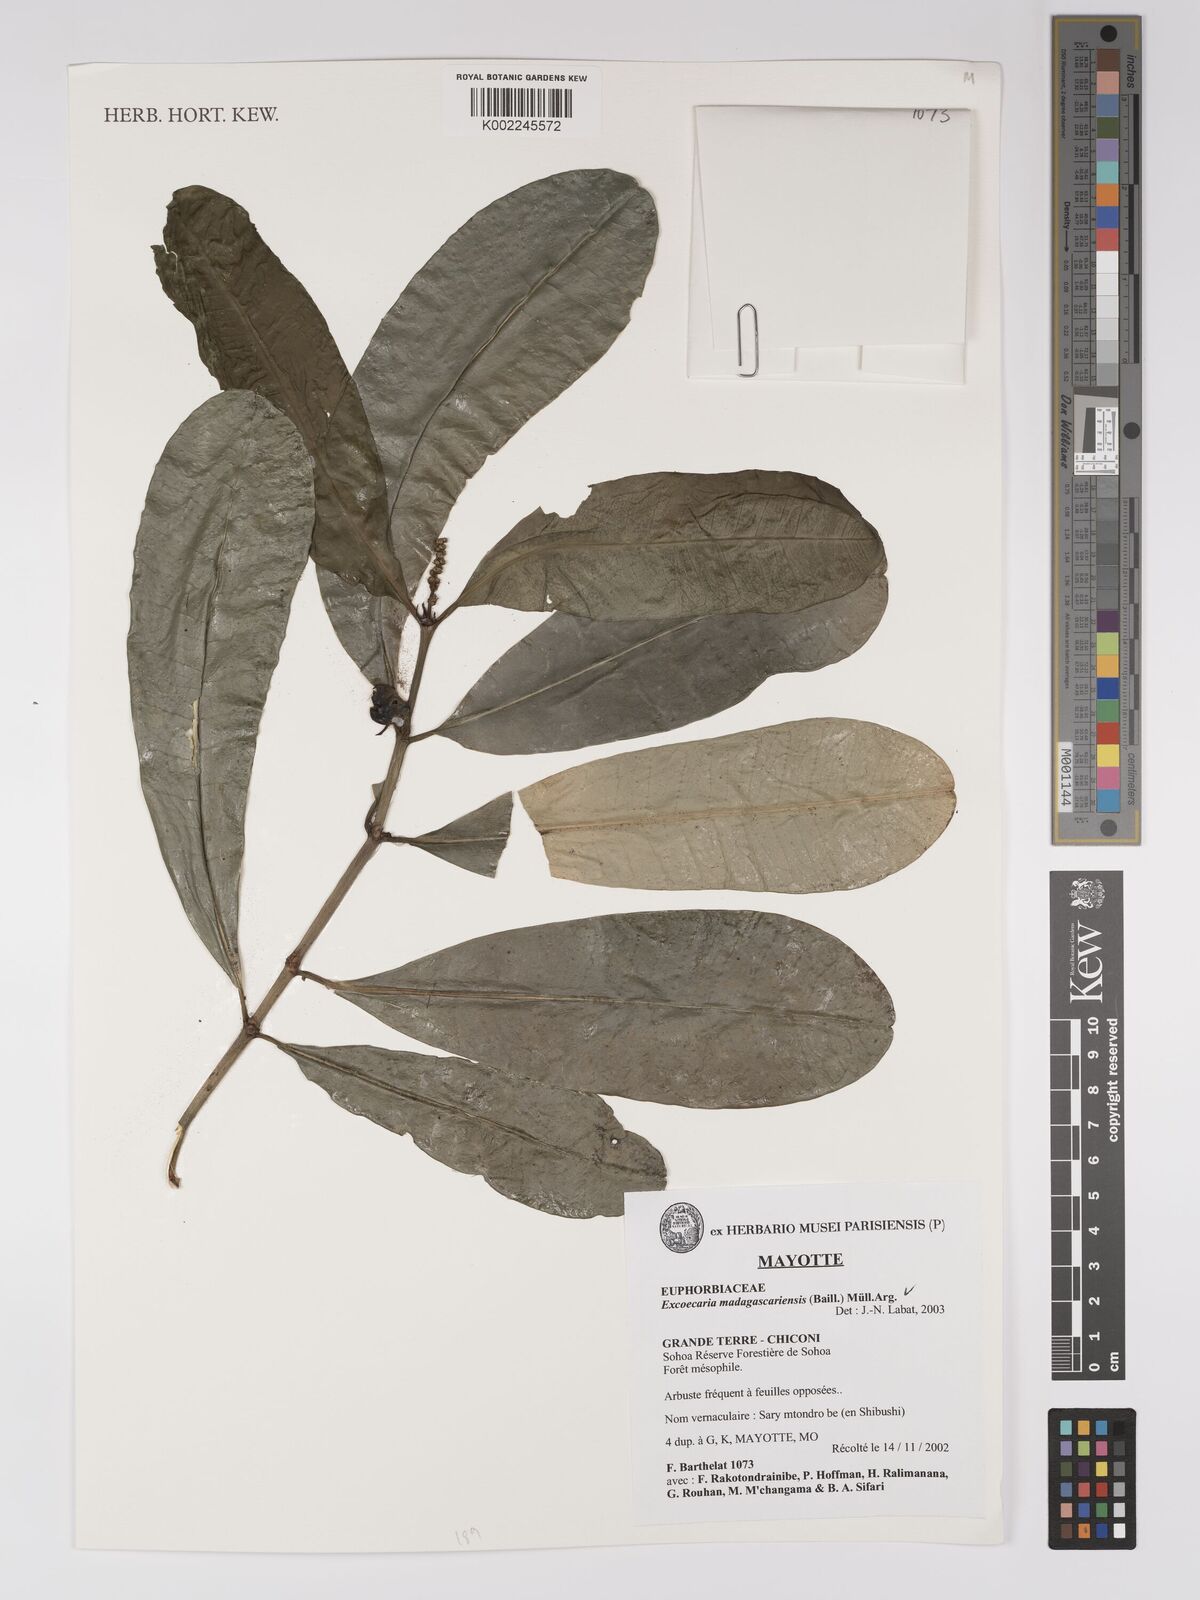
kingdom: Plantae
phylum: Tracheophyta
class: Magnoliopsida
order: Malpighiales
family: Euphorbiaceae
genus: Excoecaria
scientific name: Excoecaria madagascariensis
